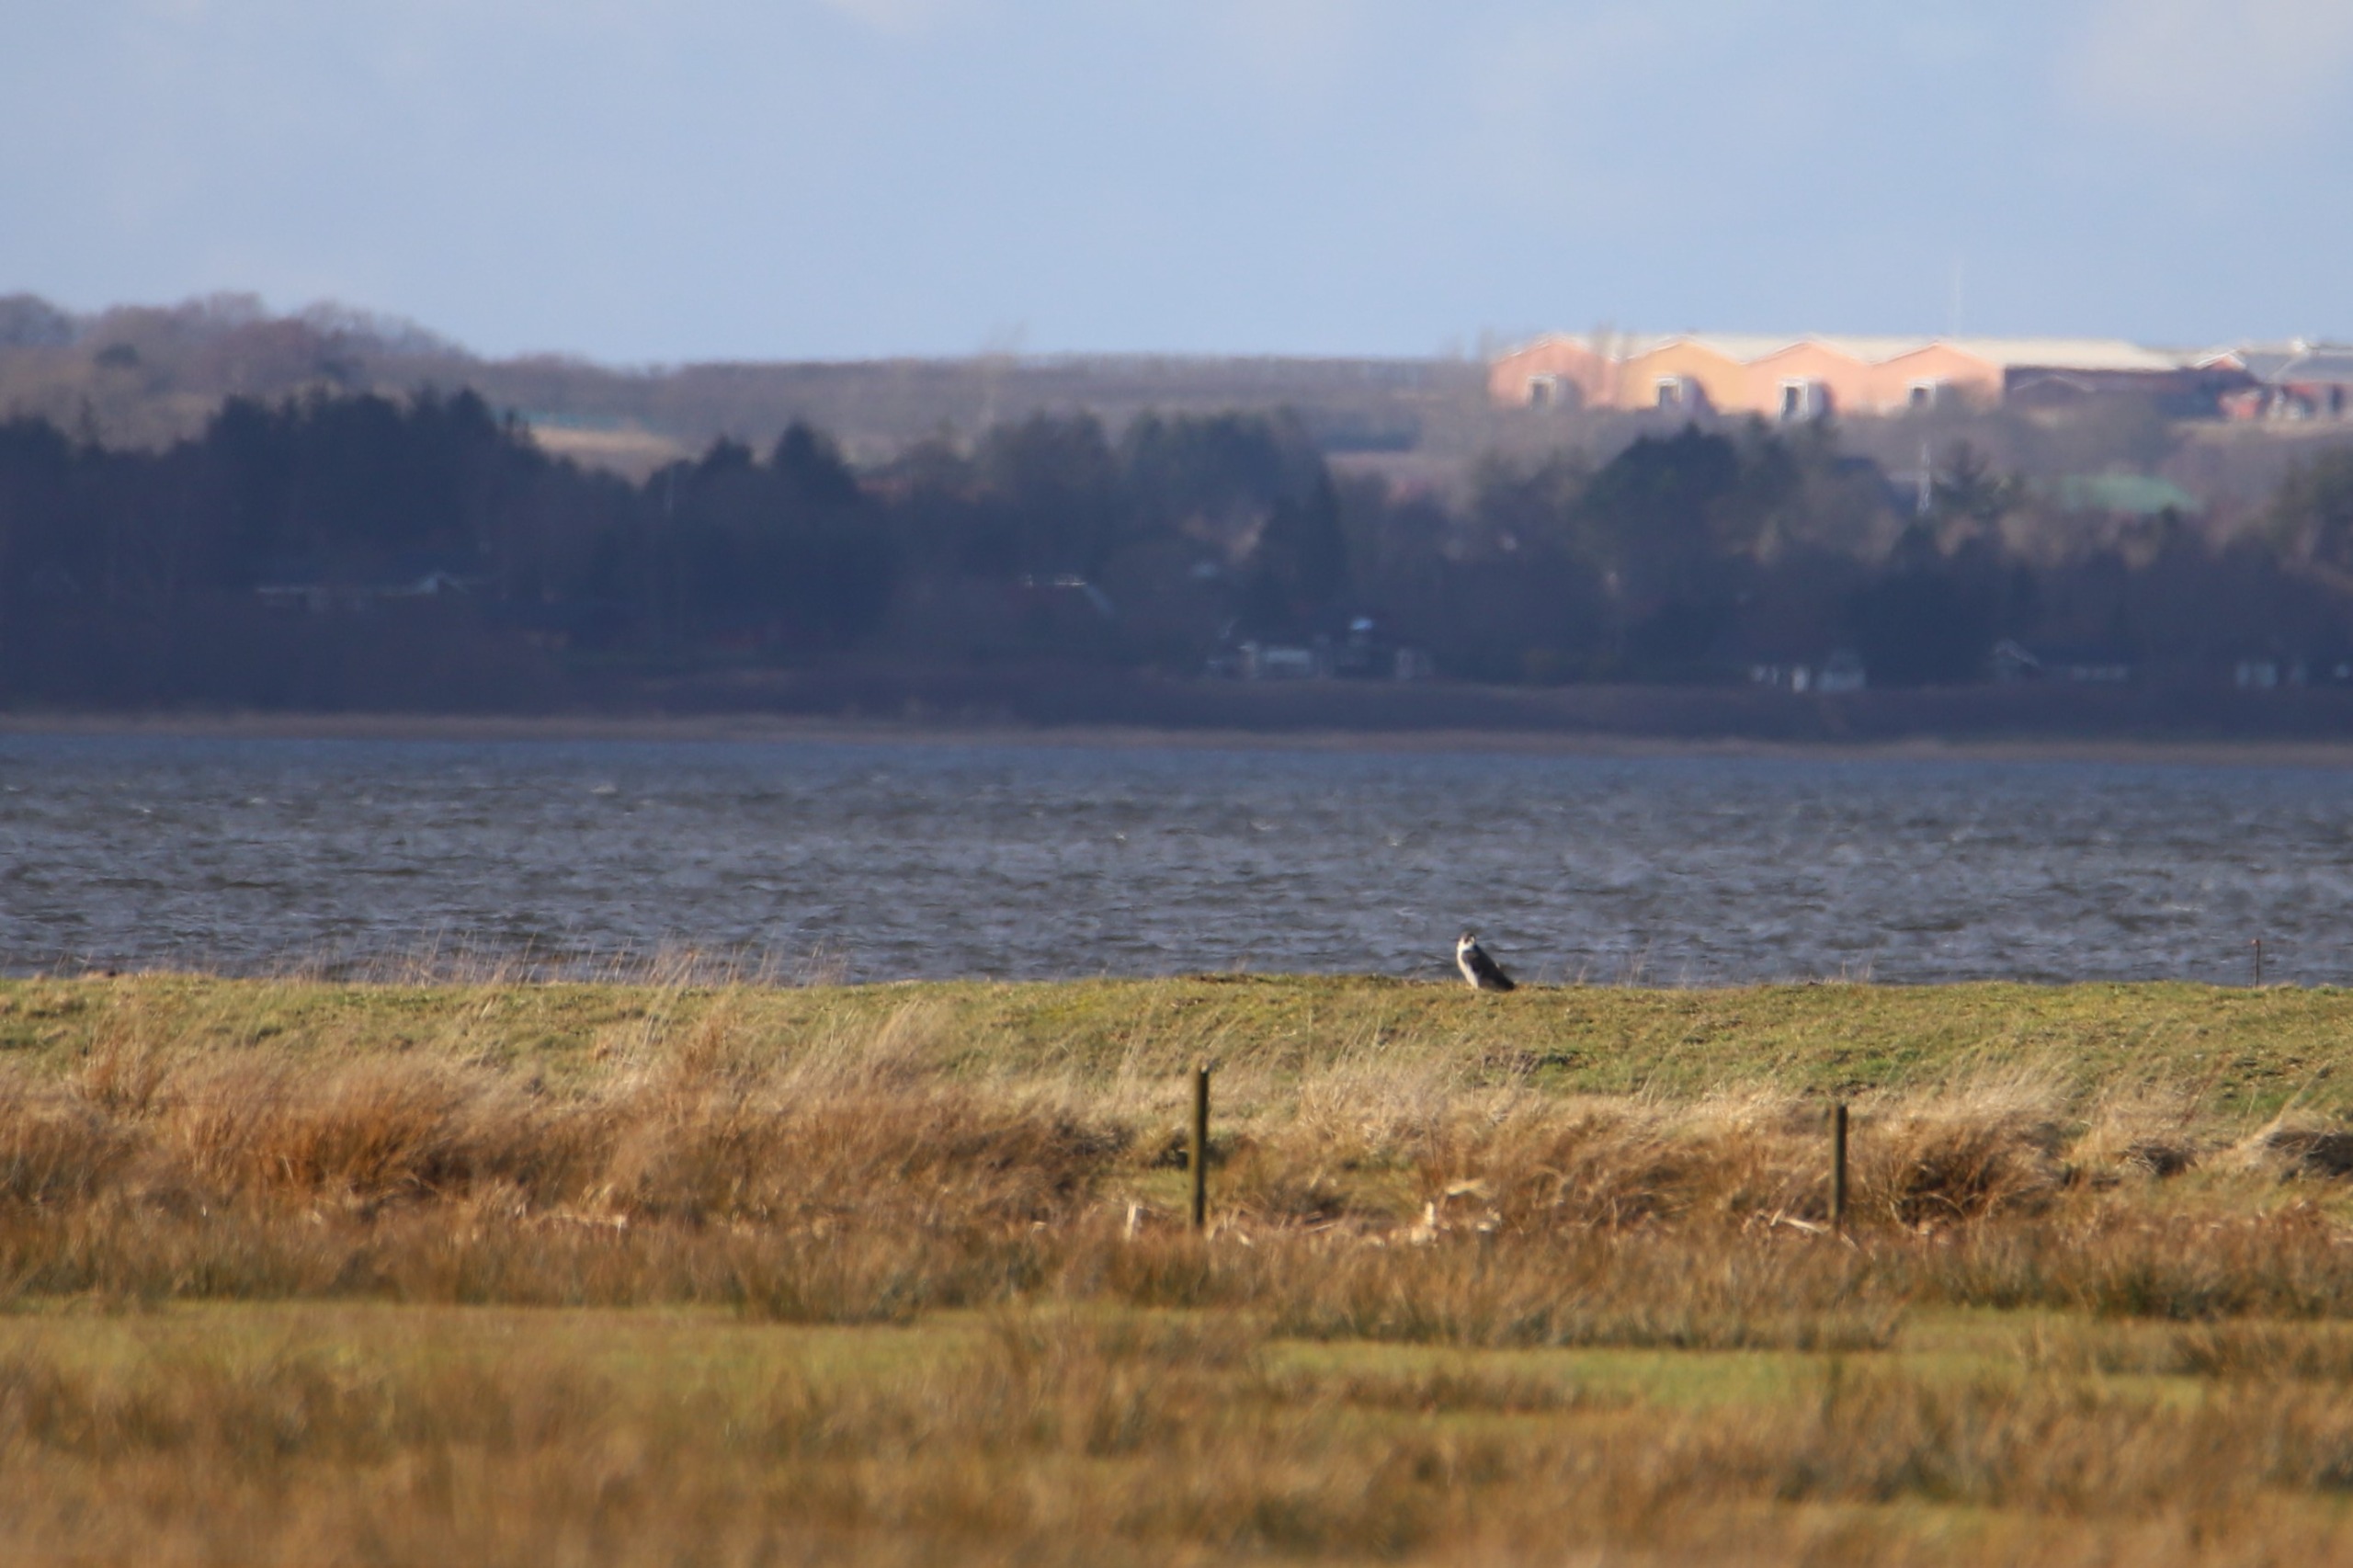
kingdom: Animalia
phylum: Chordata
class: Aves
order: Falconiformes
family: Falconidae
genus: Falco
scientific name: Falco peregrinus
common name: Vandrefalk
